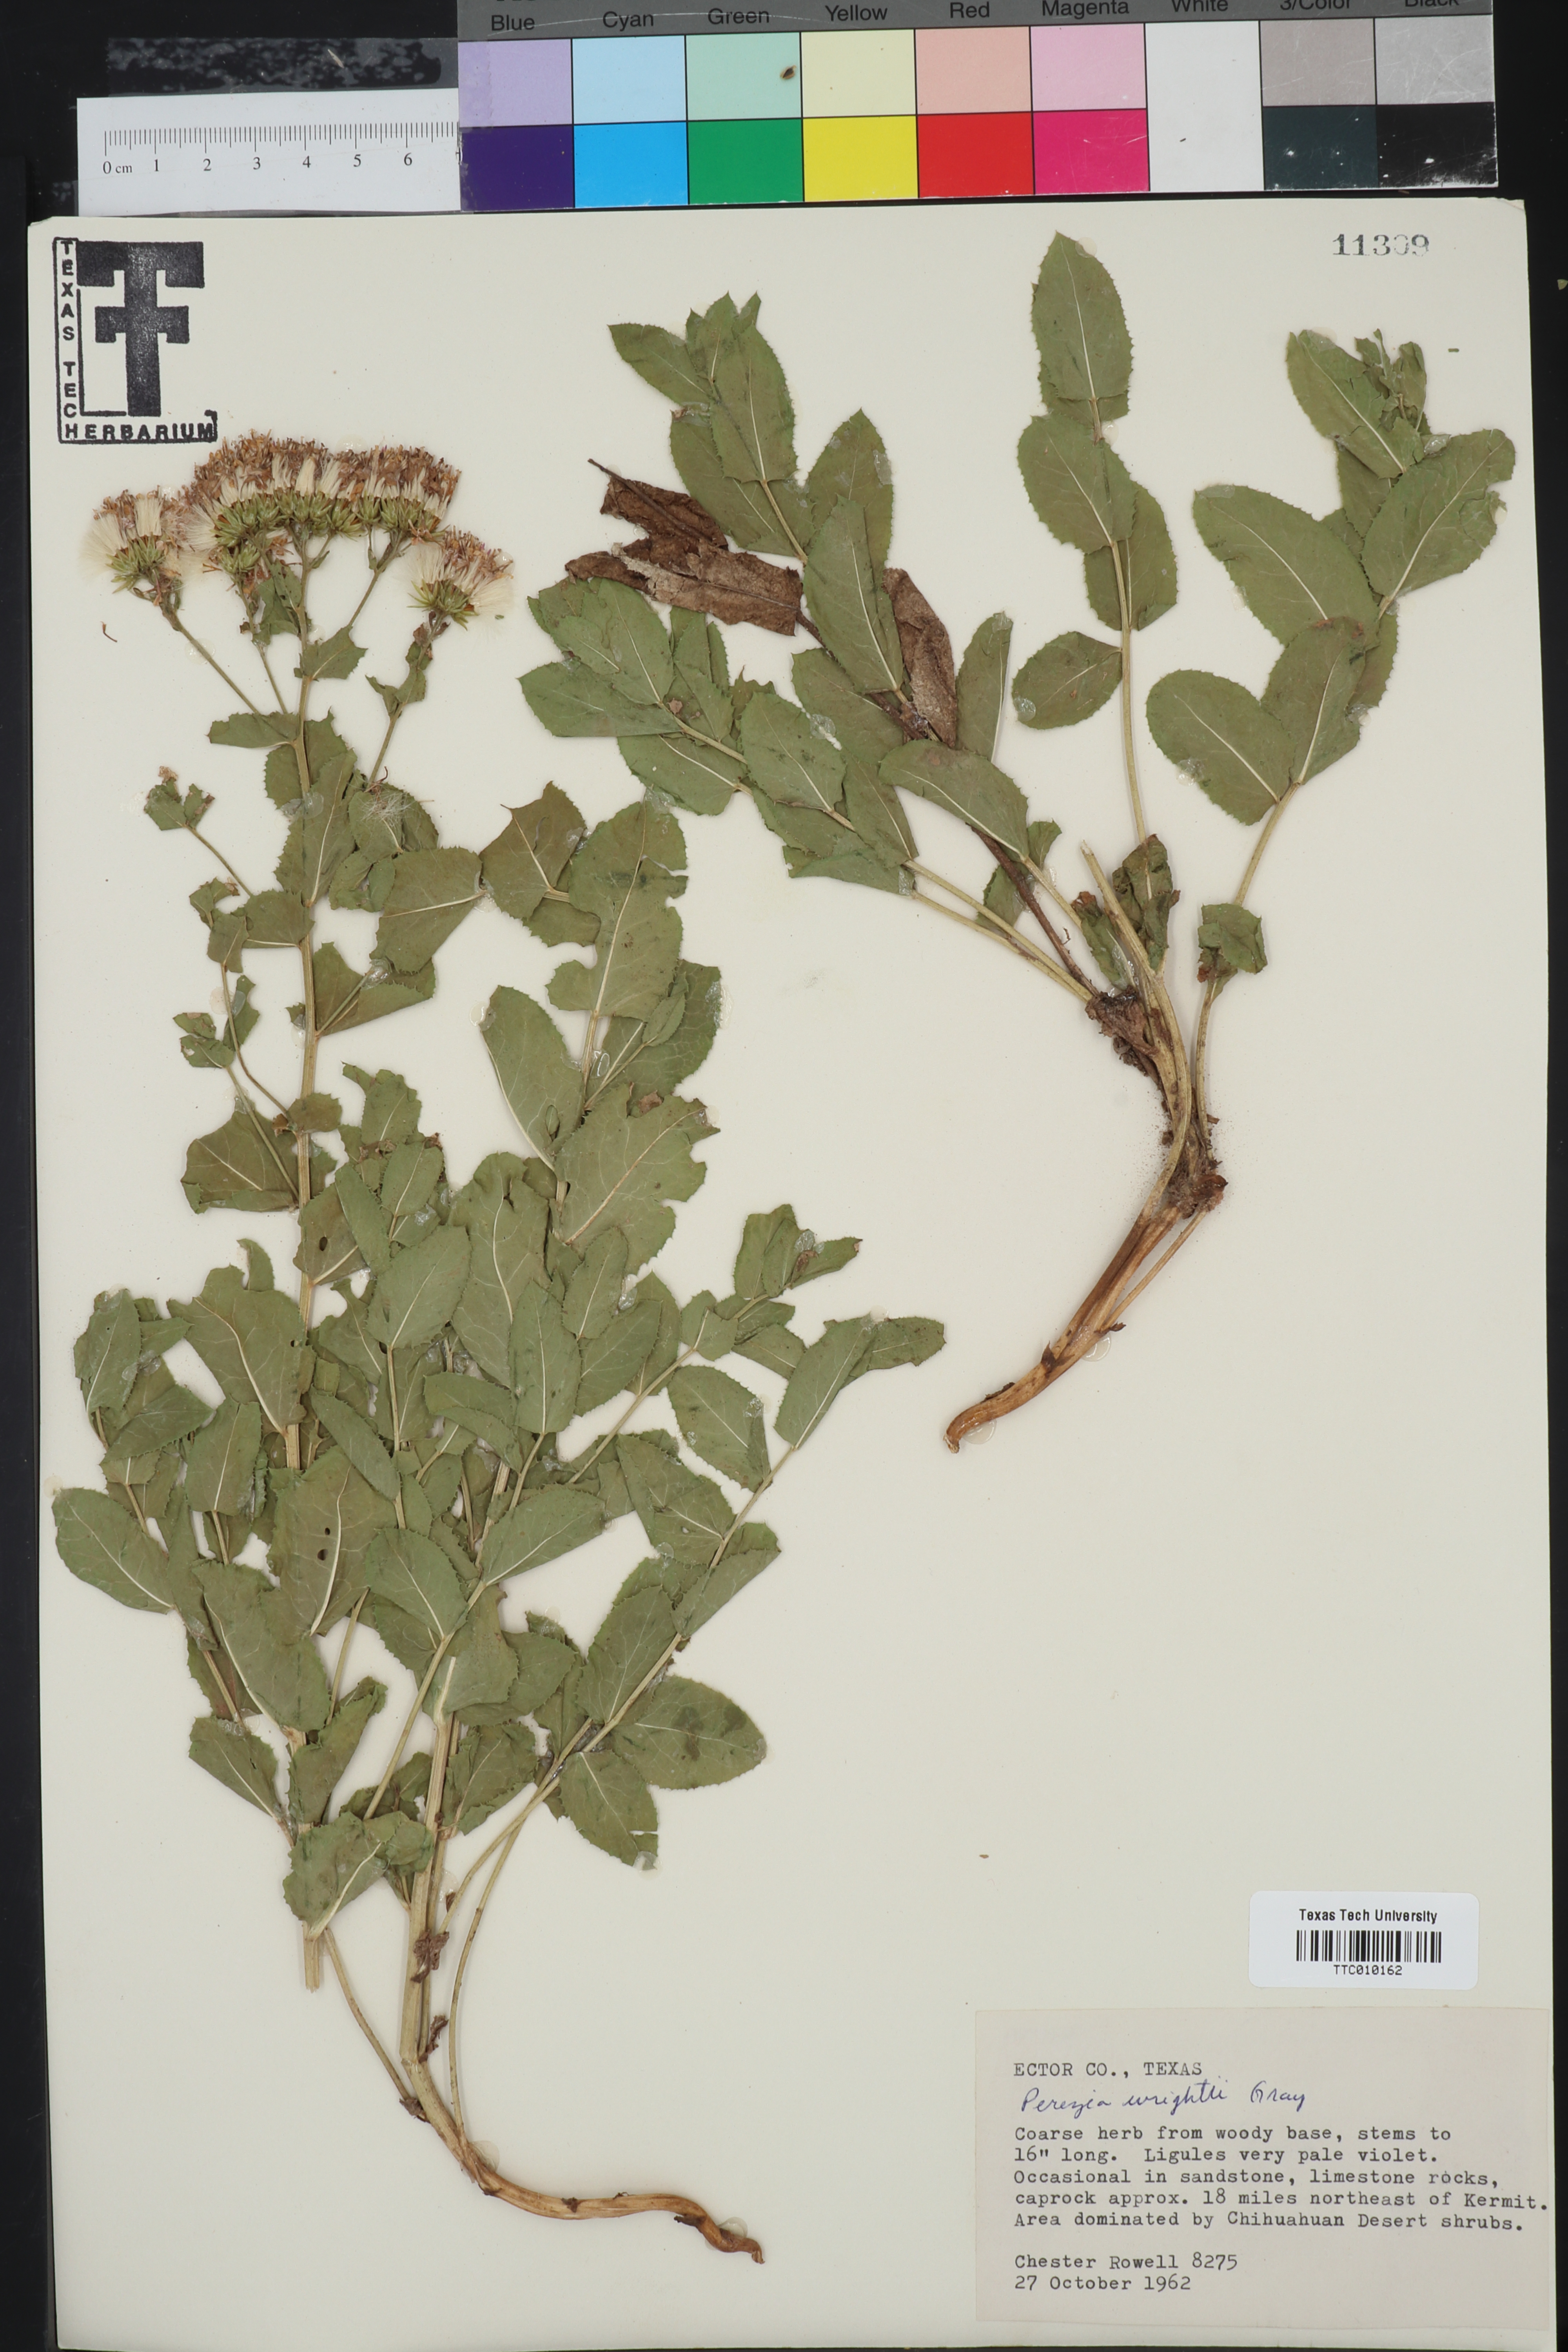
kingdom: Plantae
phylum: Tracheophyta
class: Magnoliopsida
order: Asterales
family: Asteraceae
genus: Acourtia
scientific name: Acourtia wrightii
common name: Brownfoot
